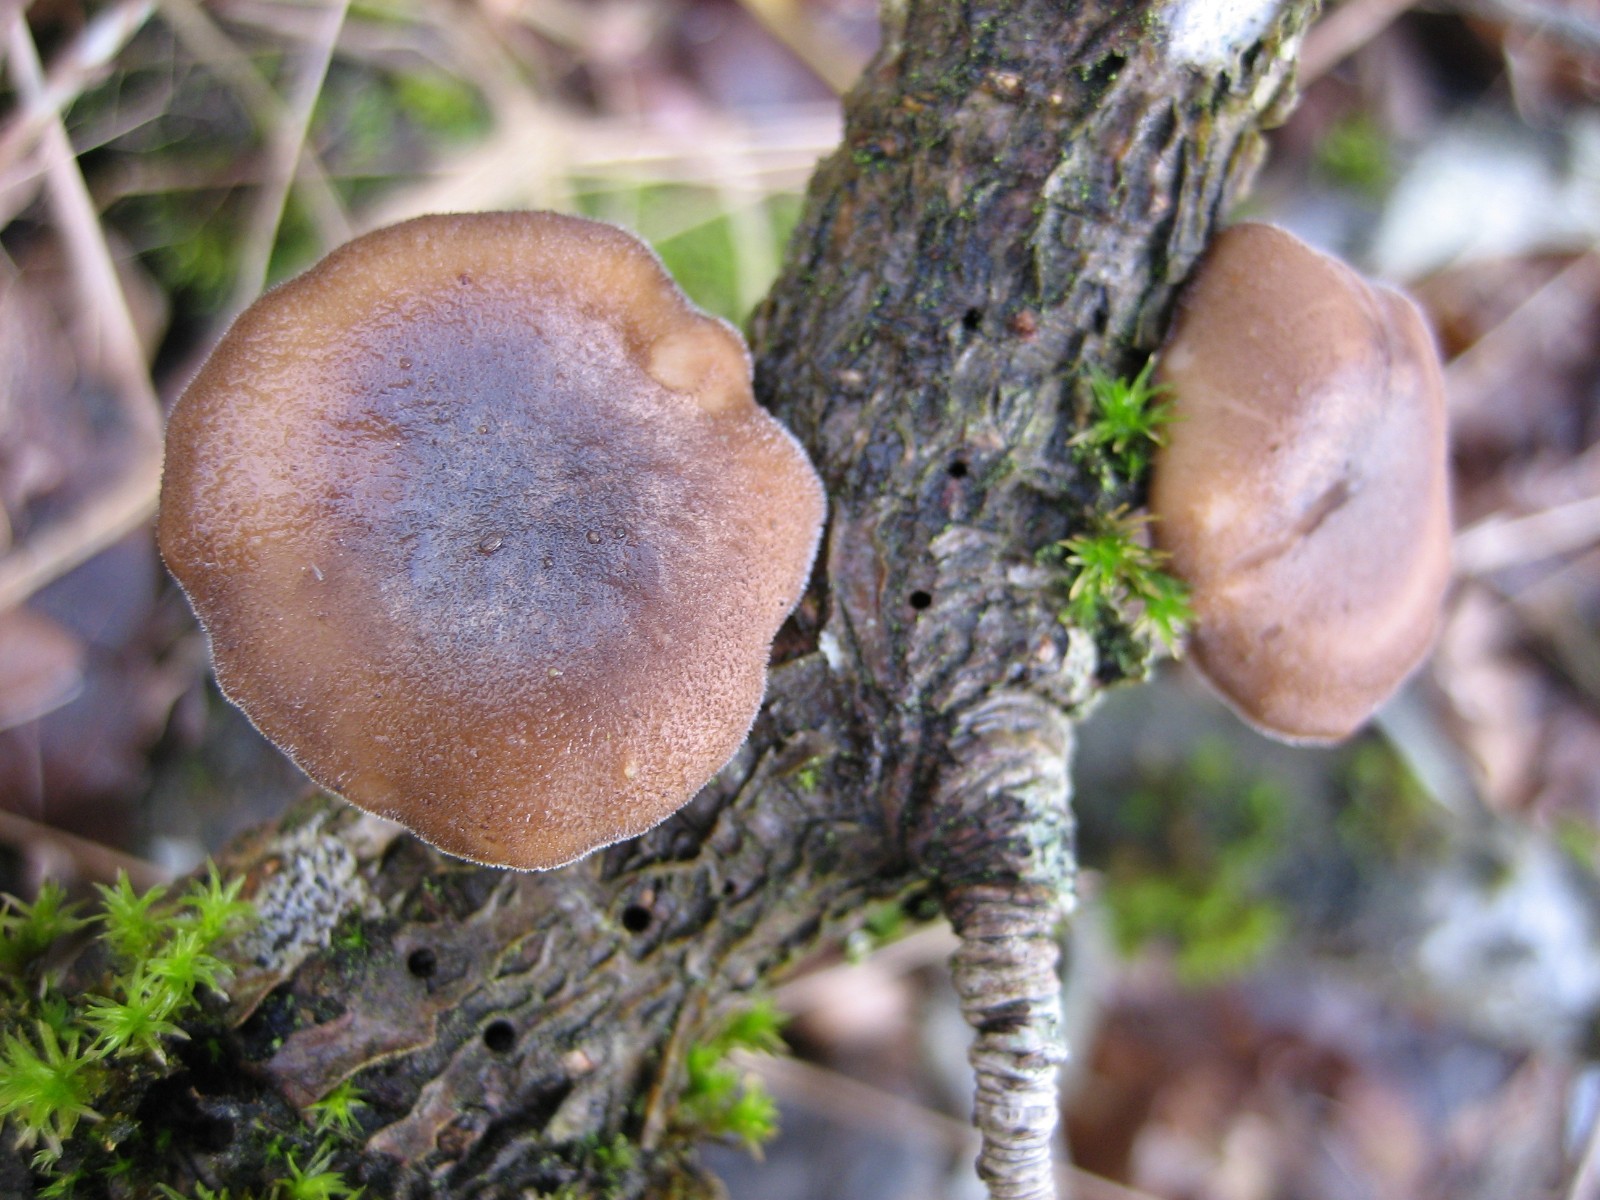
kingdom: Fungi
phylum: Basidiomycota
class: Agaricomycetes
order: Polyporales
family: Polyporaceae
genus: Lentinus
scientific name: Lentinus brumalis
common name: vinter-stilkporesvamp
